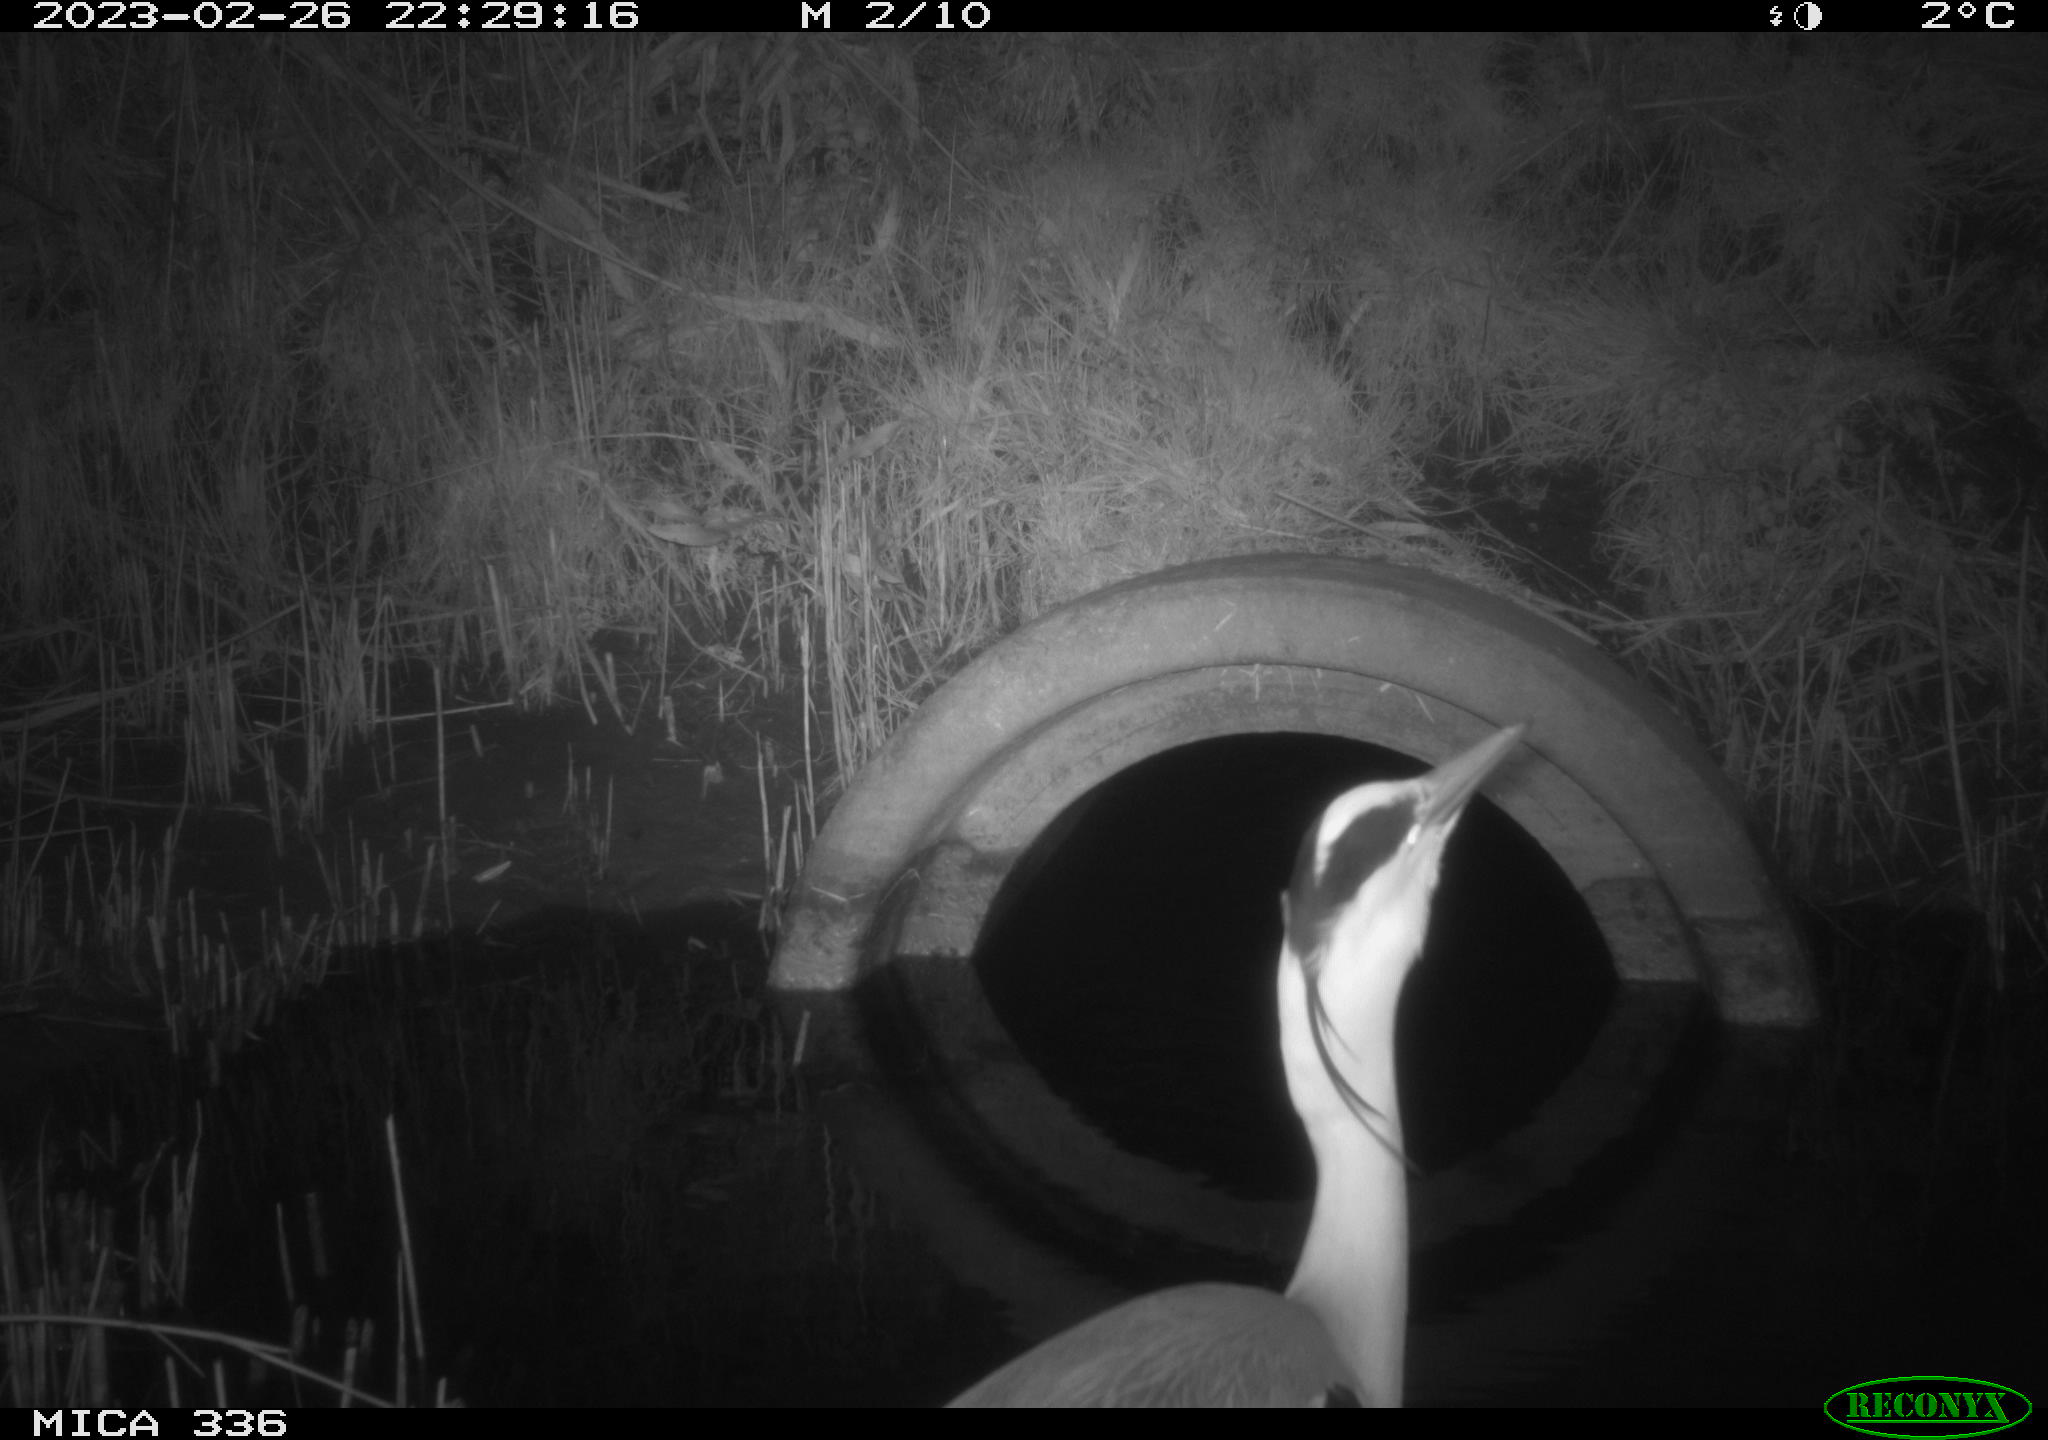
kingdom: Animalia
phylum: Chordata
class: Aves
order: Pelecaniformes
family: Ardeidae
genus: Ardea
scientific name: Ardea cinerea
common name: Grey heron
